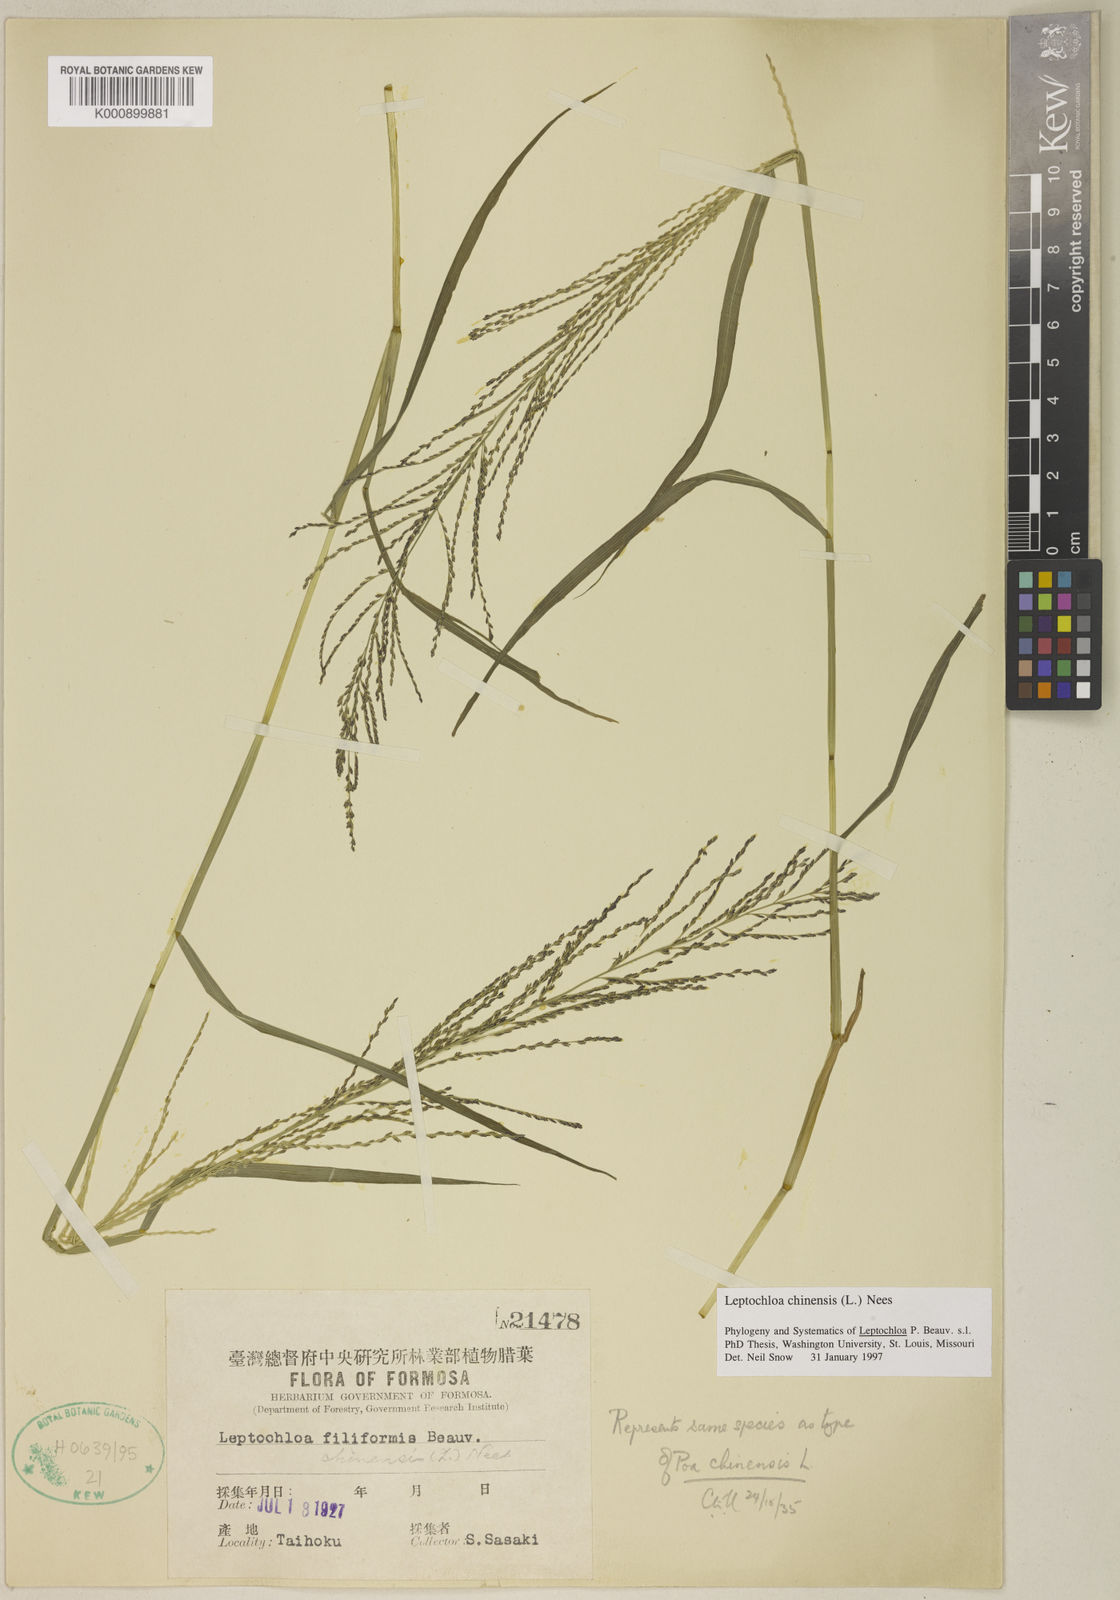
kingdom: Plantae
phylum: Tracheophyta
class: Liliopsida
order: Poales
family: Poaceae
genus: Leptochloa
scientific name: Leptochloa mucronata
